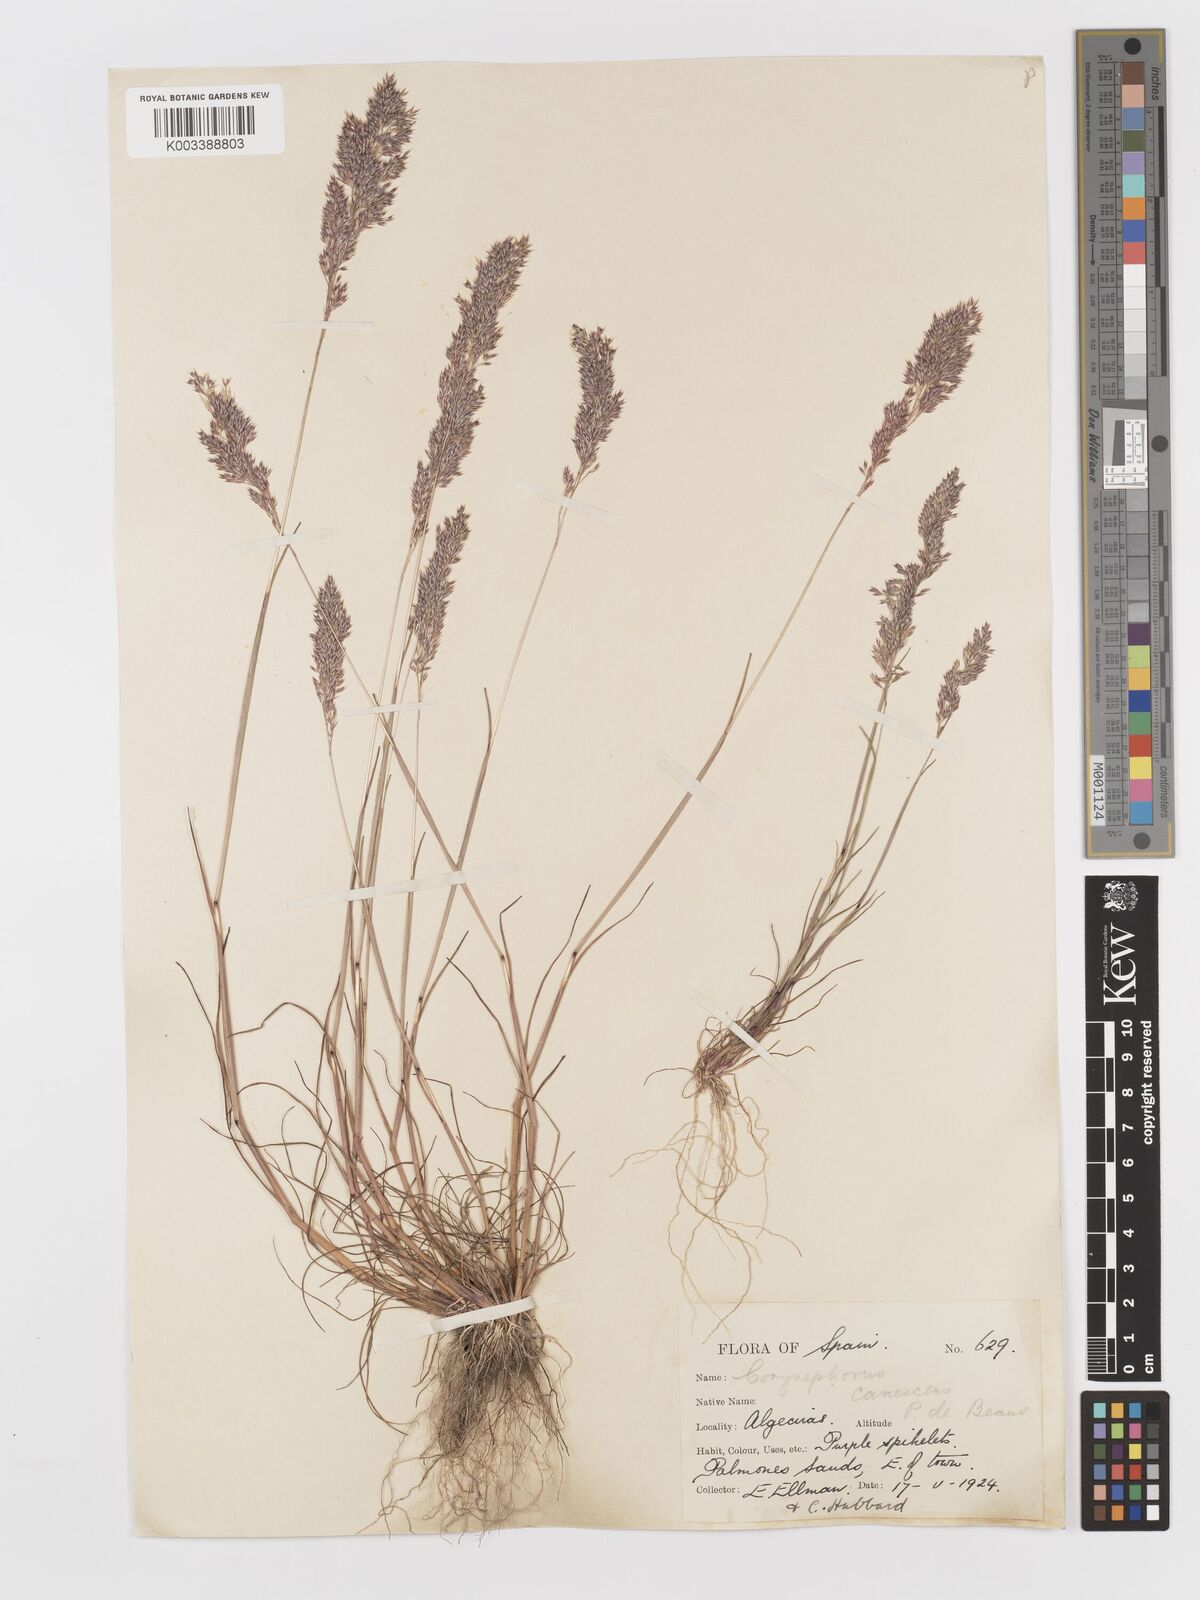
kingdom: Plantae
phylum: Tracheophyta
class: Liliopsida
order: Poales
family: Poaceae
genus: Corynephorus
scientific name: Corynephorus canescens
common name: Grey hair-grass
